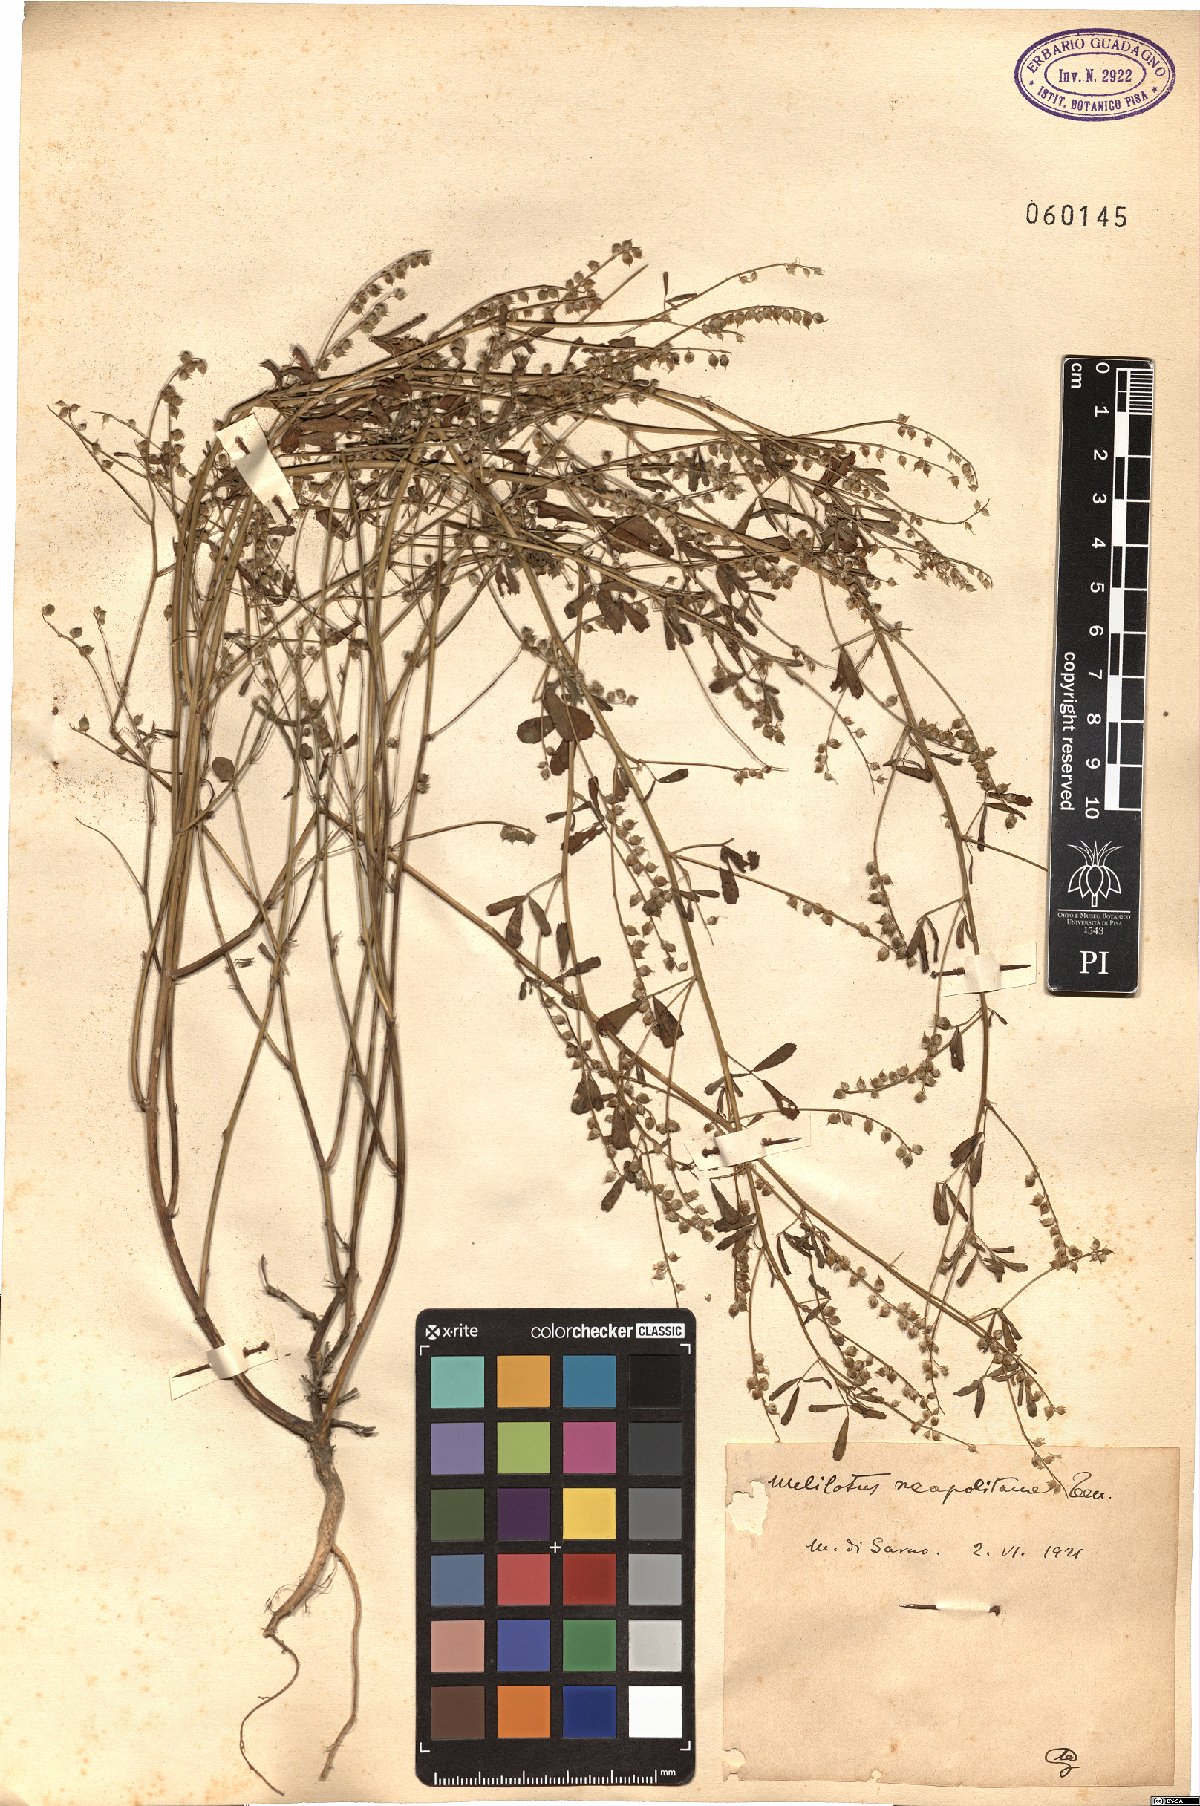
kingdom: Plantae
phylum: Tracheophyta
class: Magnoliopsida
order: Fabales
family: Fabaceae
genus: Melilotus
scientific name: Melilotus neapolitanus
